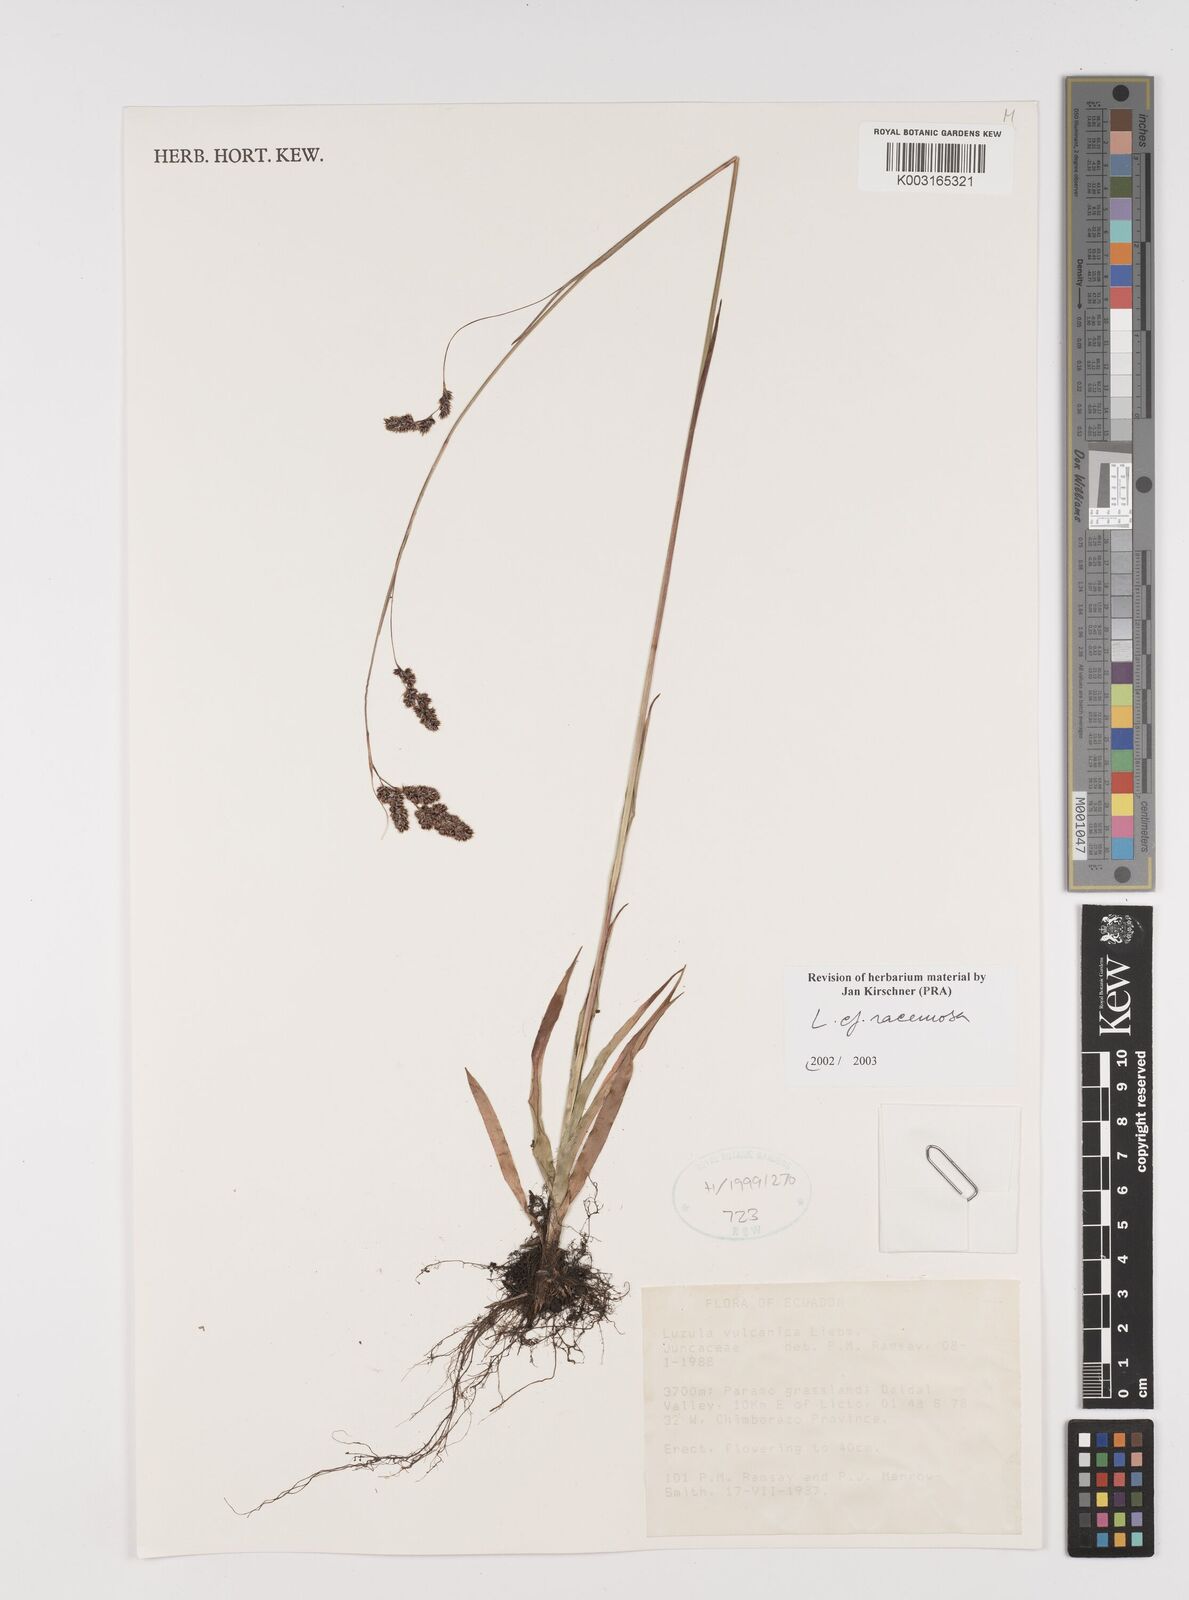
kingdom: Plantae
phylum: Tracheophyta
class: Liliopsida
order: Poales
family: Juncaceae
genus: Luzula
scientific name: Luzula racemosa
